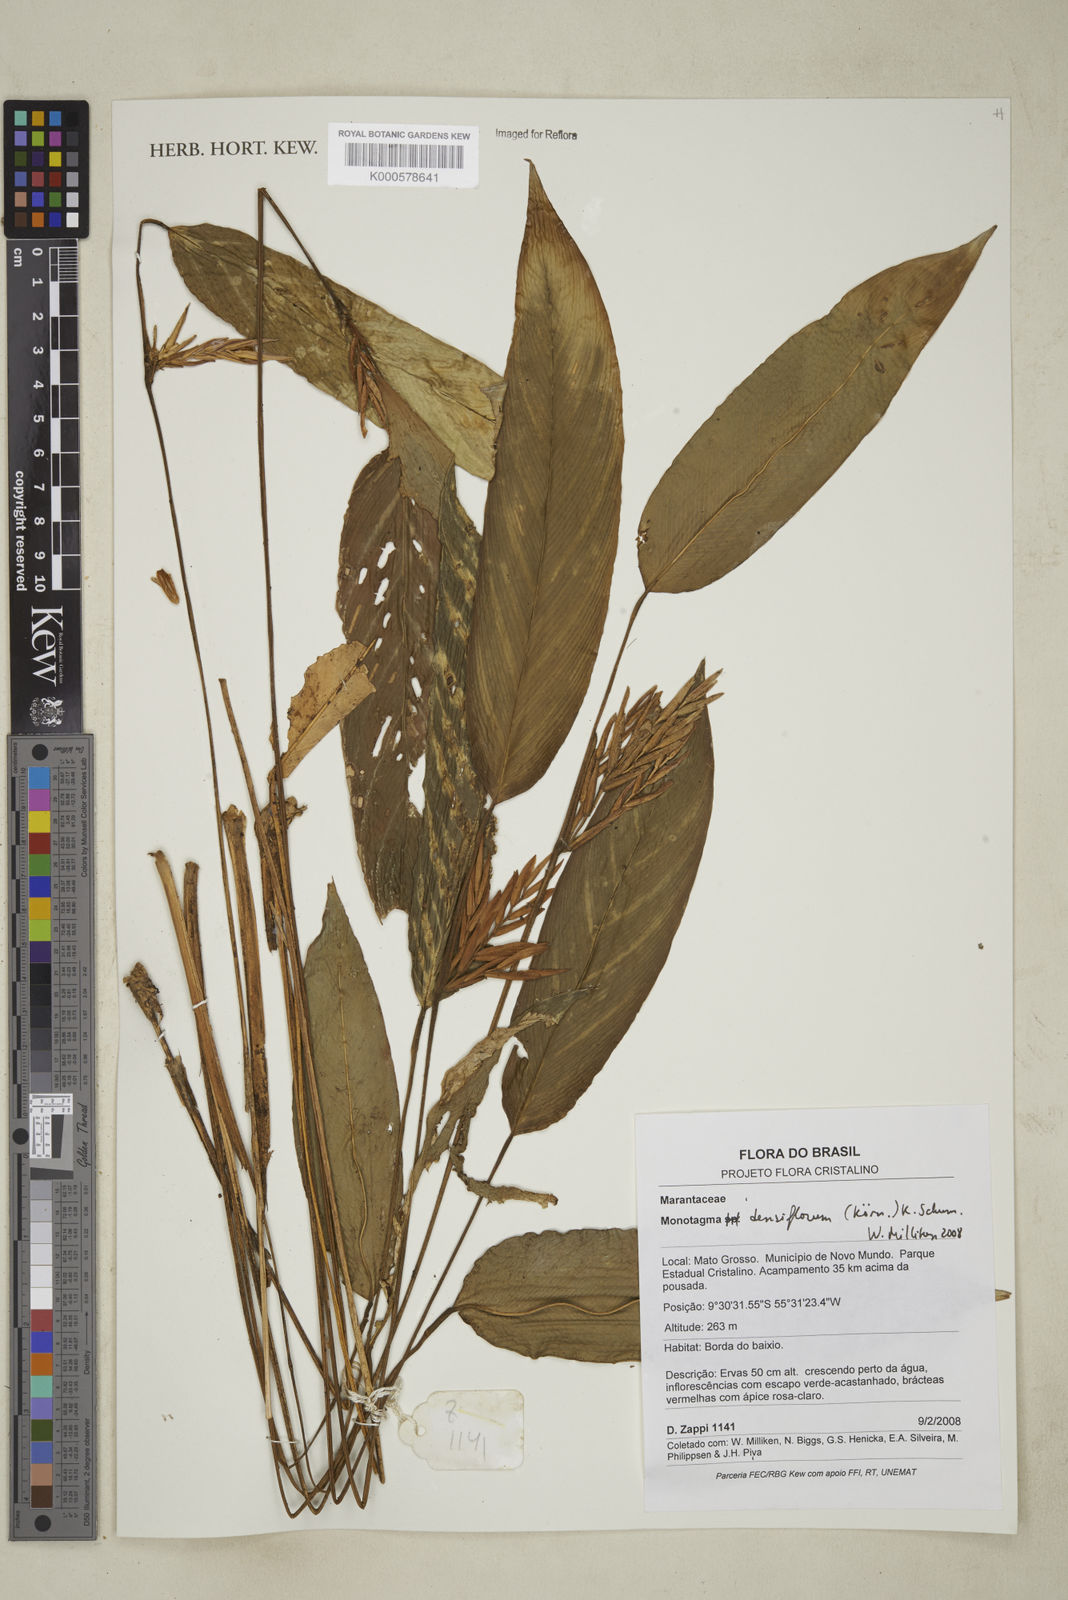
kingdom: Plantae
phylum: Tracheophyta
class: Liliopsida
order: Zingiberales
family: Marantaceae
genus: Monotagma
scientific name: Monotagma
